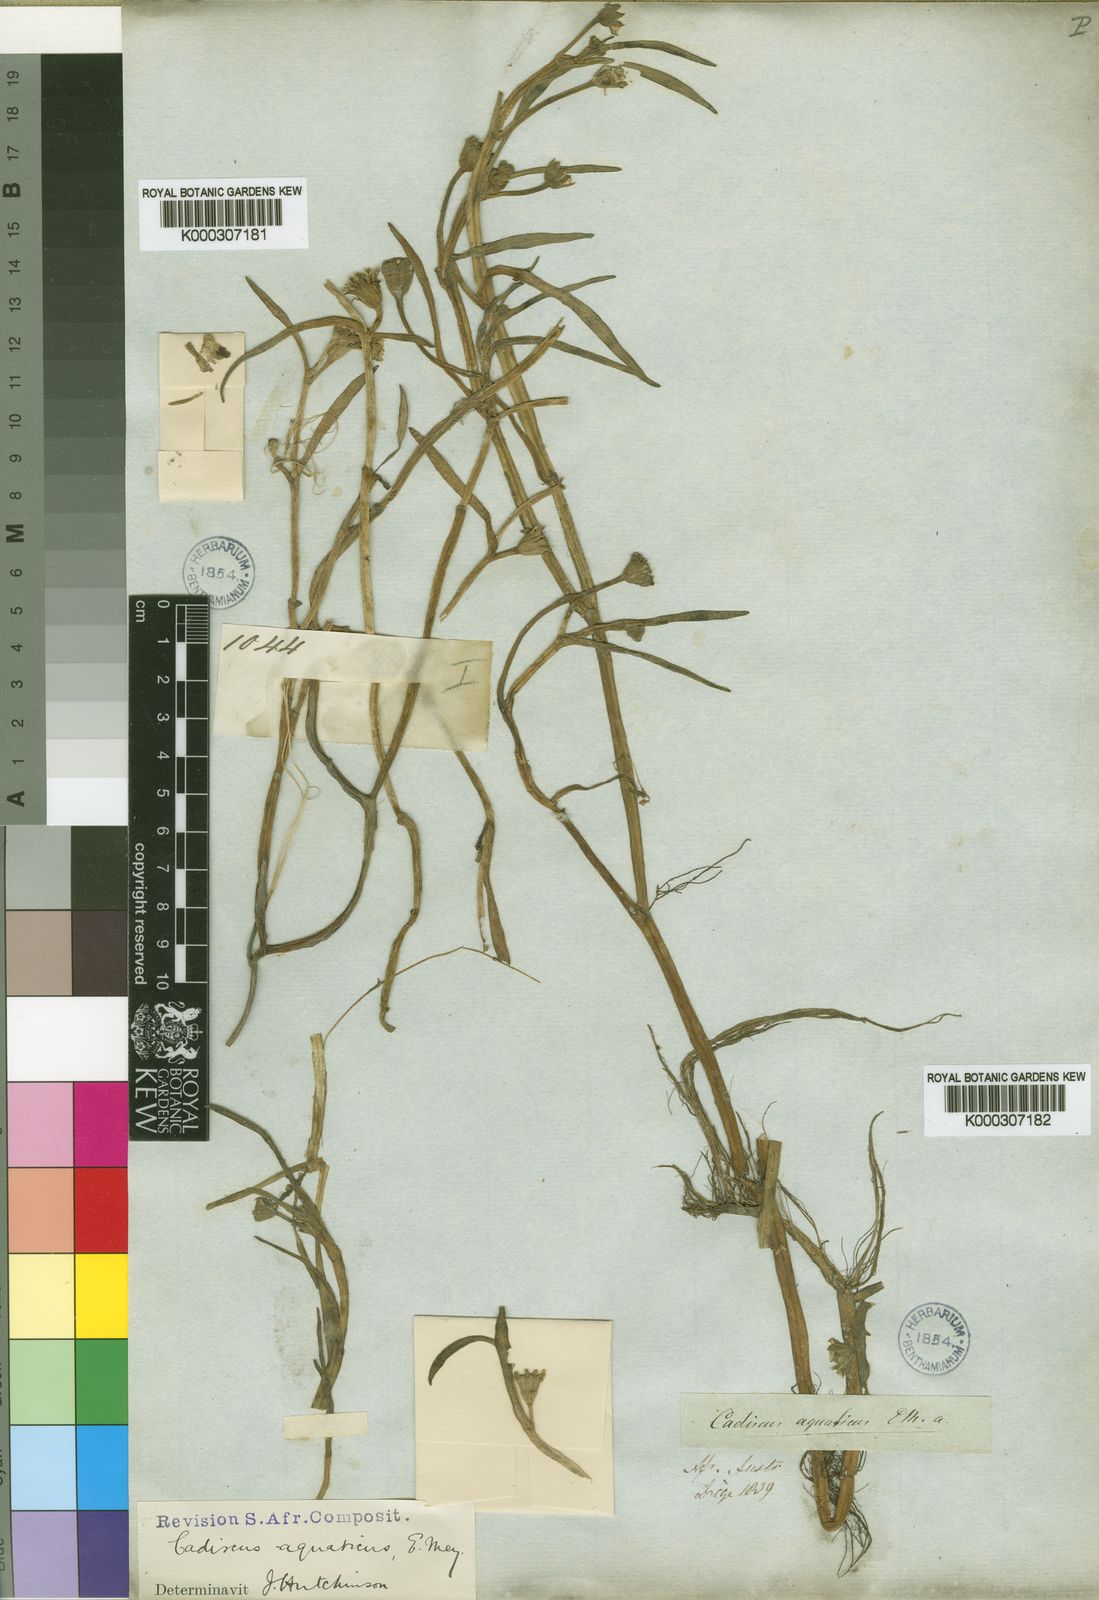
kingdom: Plantae
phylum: Tracheophyta
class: Magnoliopsida
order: Asterales
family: Asteraceae
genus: Cadiscus
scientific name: Cadiscus aquaticus
